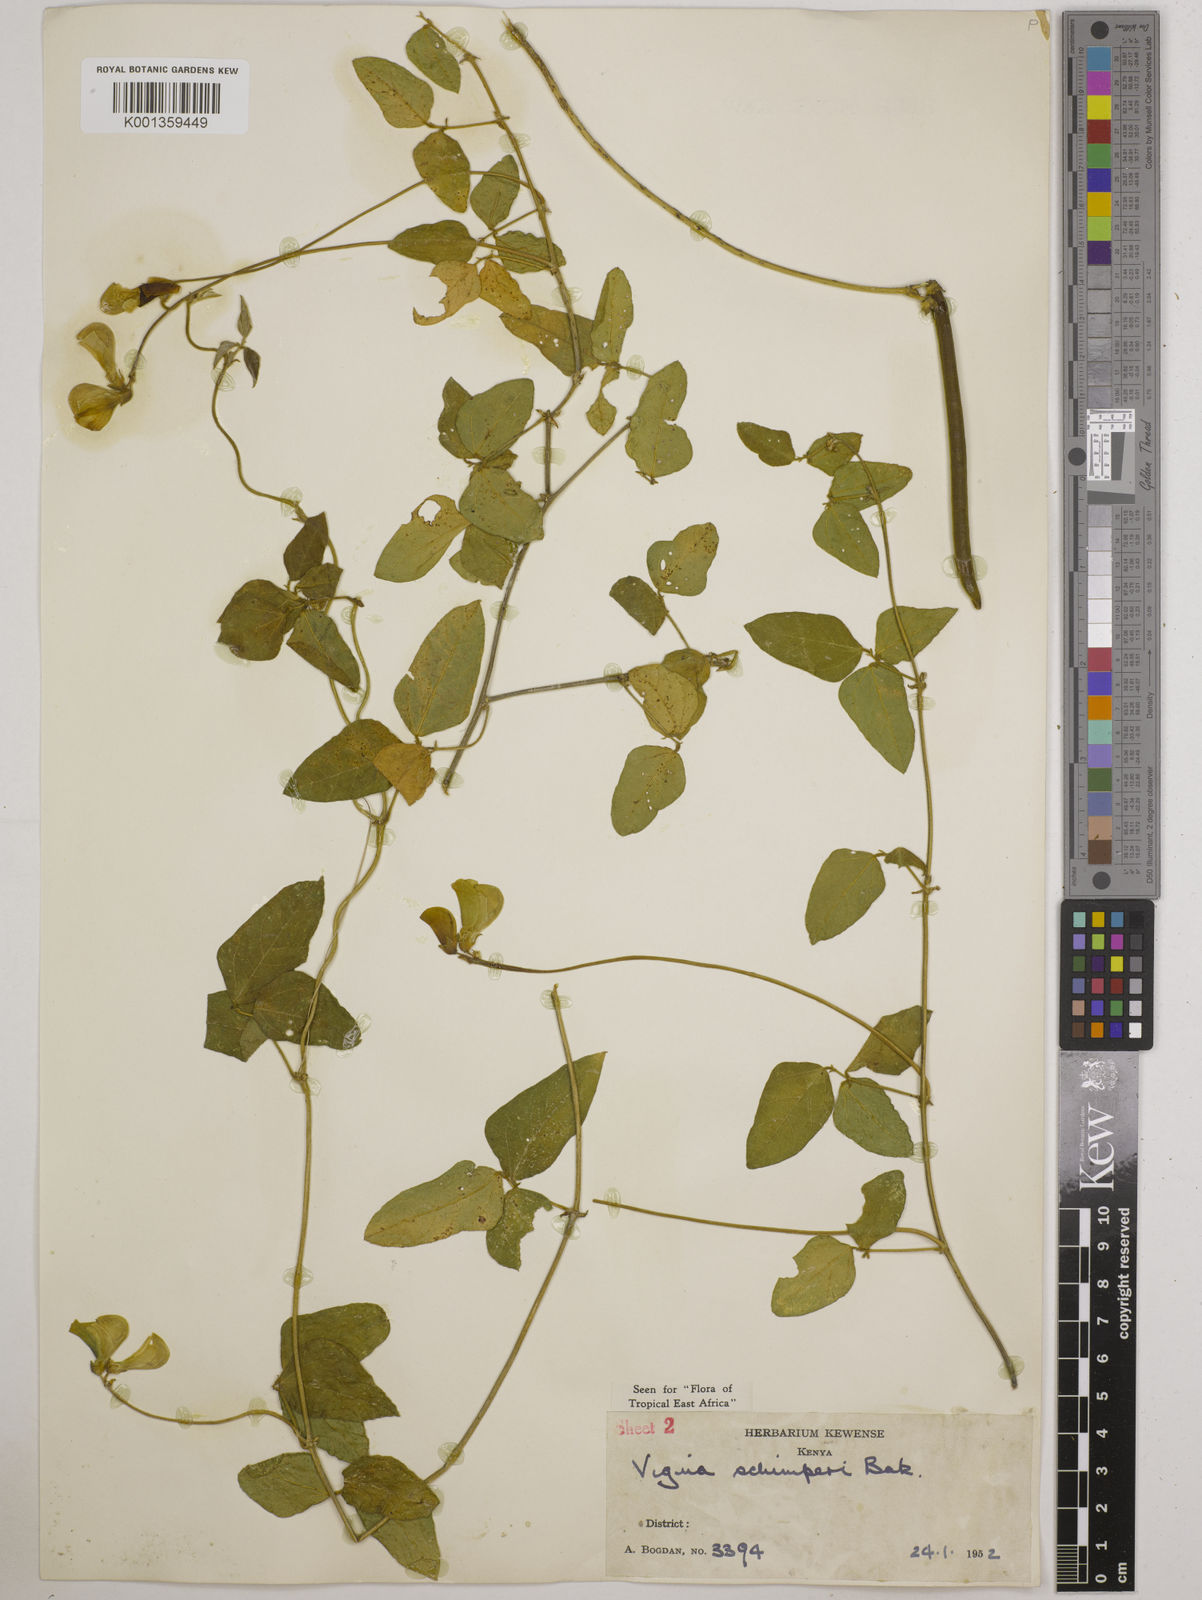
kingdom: Plantae
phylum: Tracheophyta
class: Magnoliopsida
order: Fabales
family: Fabaceae
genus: Vigna
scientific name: Vigna schimperi
